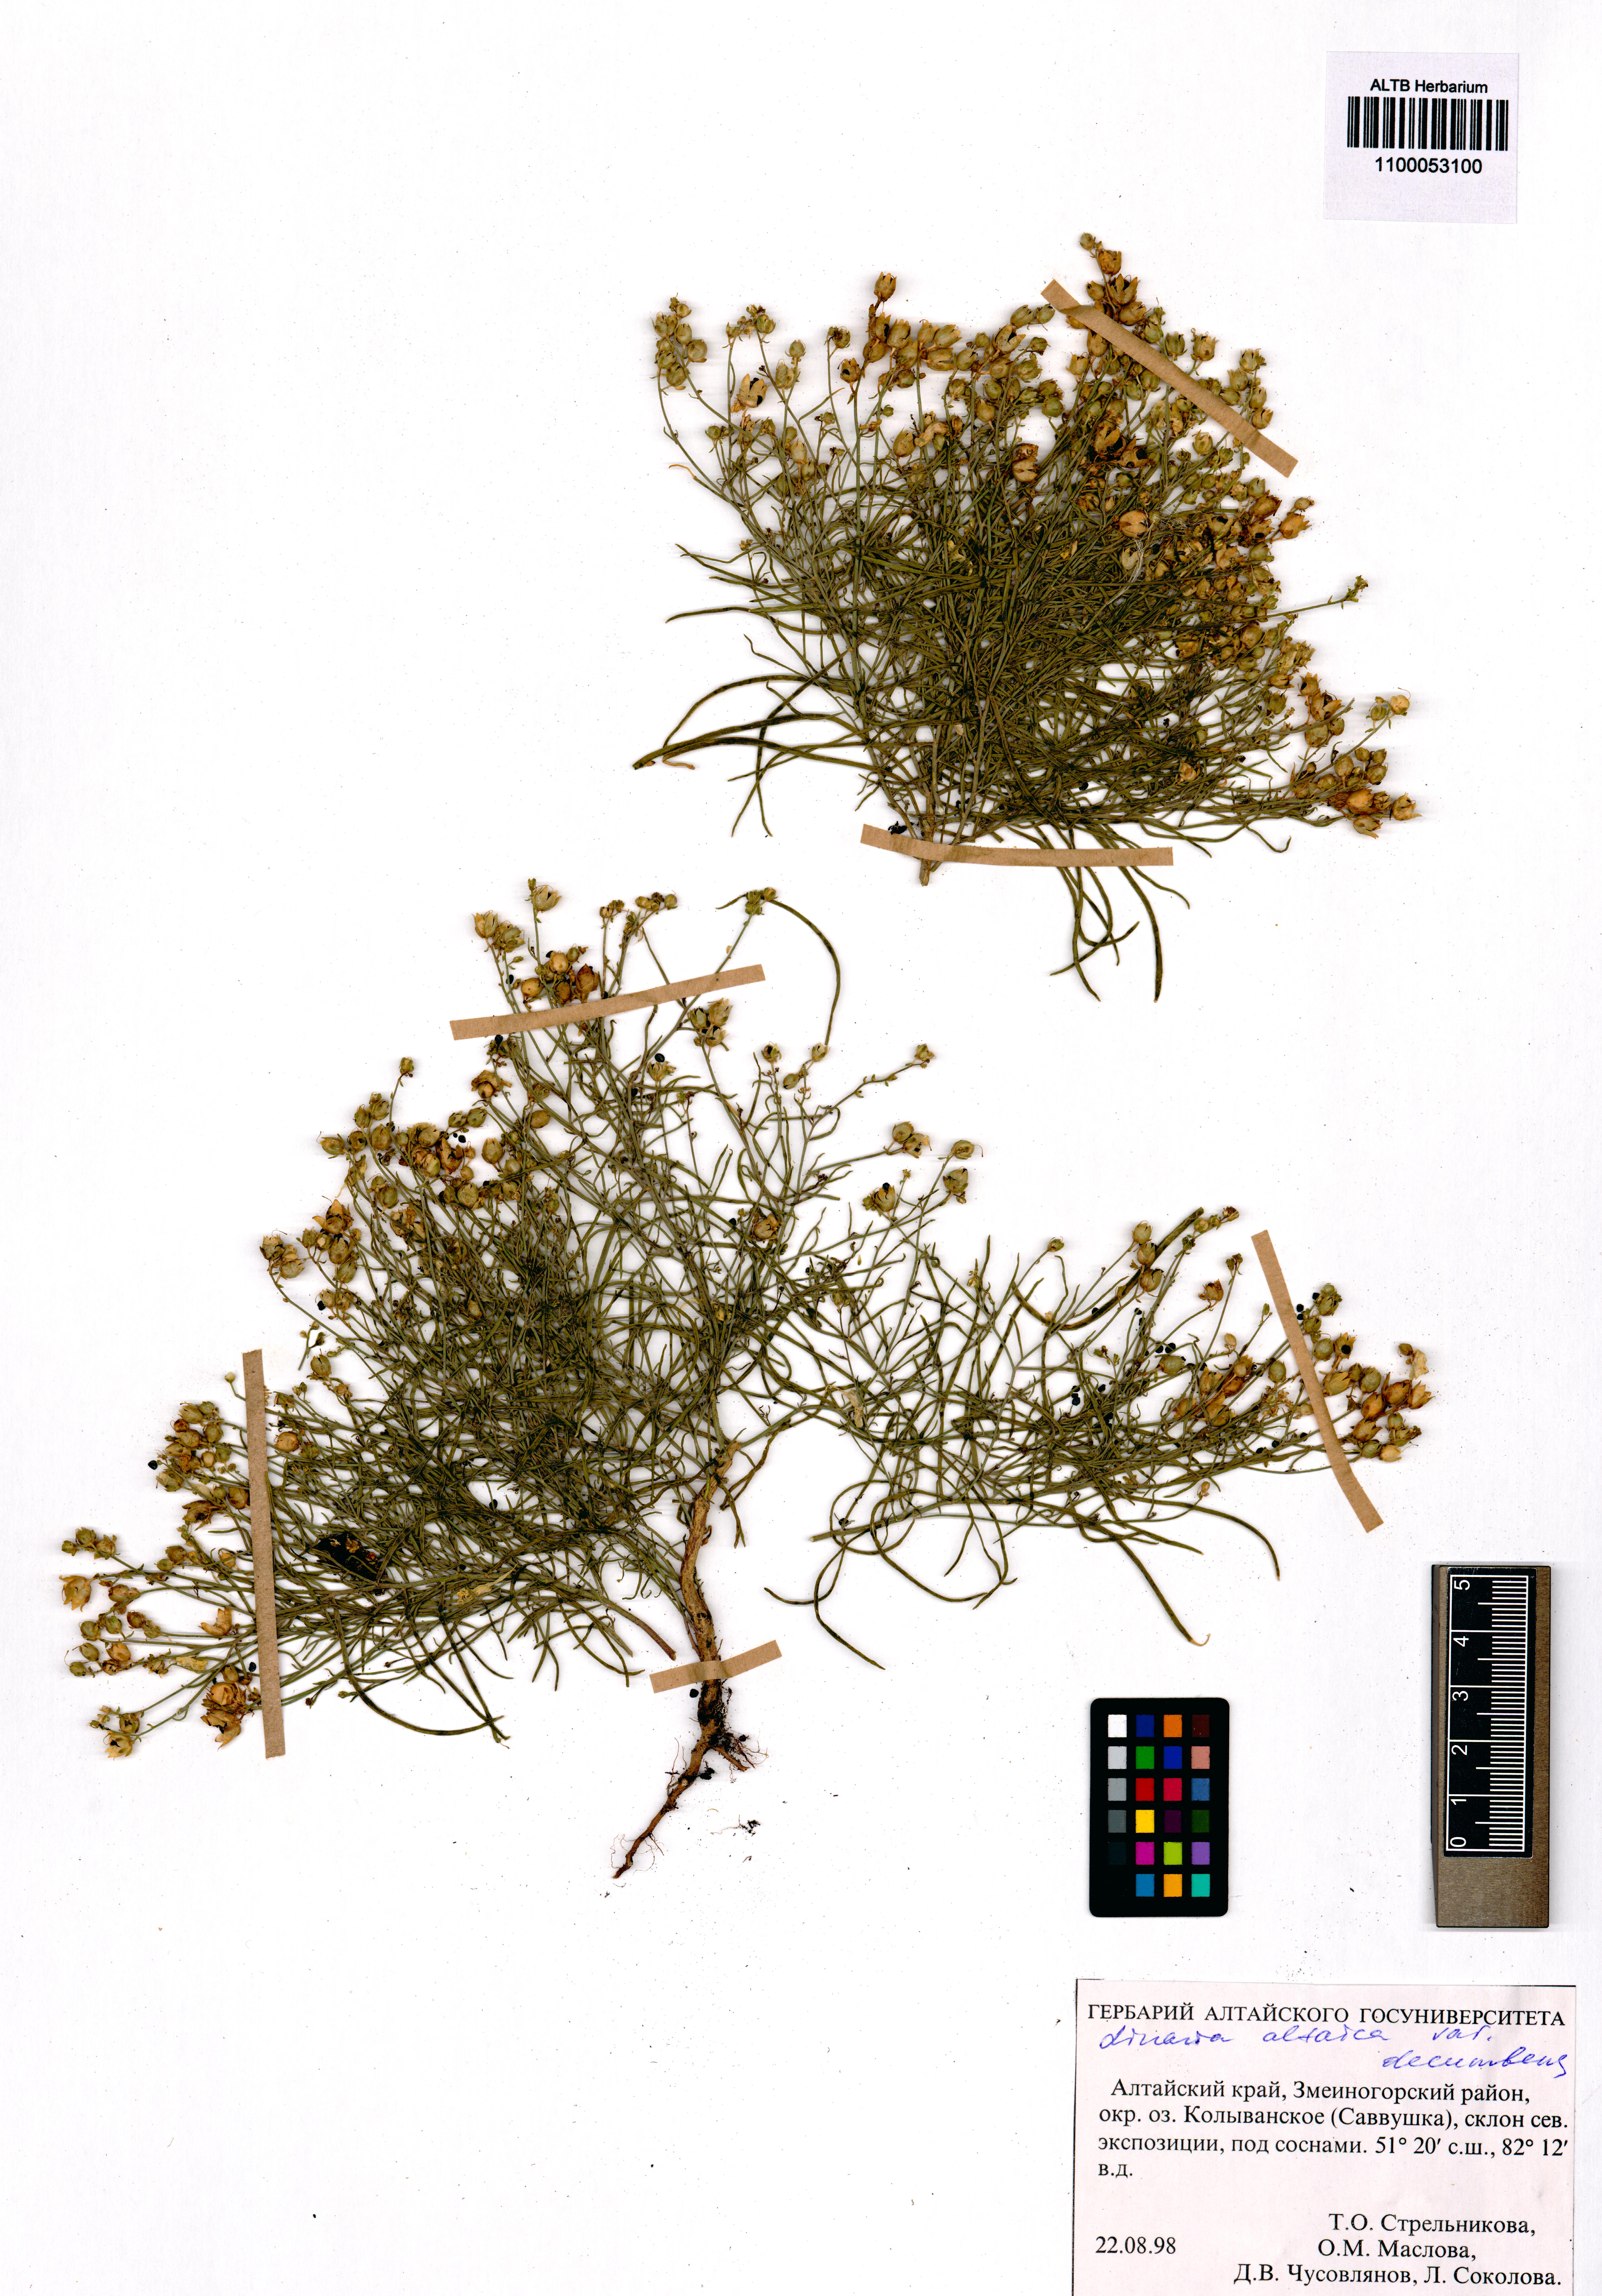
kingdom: Plantae
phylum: Tracheophyta
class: Magnoliopsida
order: Lamiales
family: Plantaginaceae
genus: Linaria
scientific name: Linaria altaica
